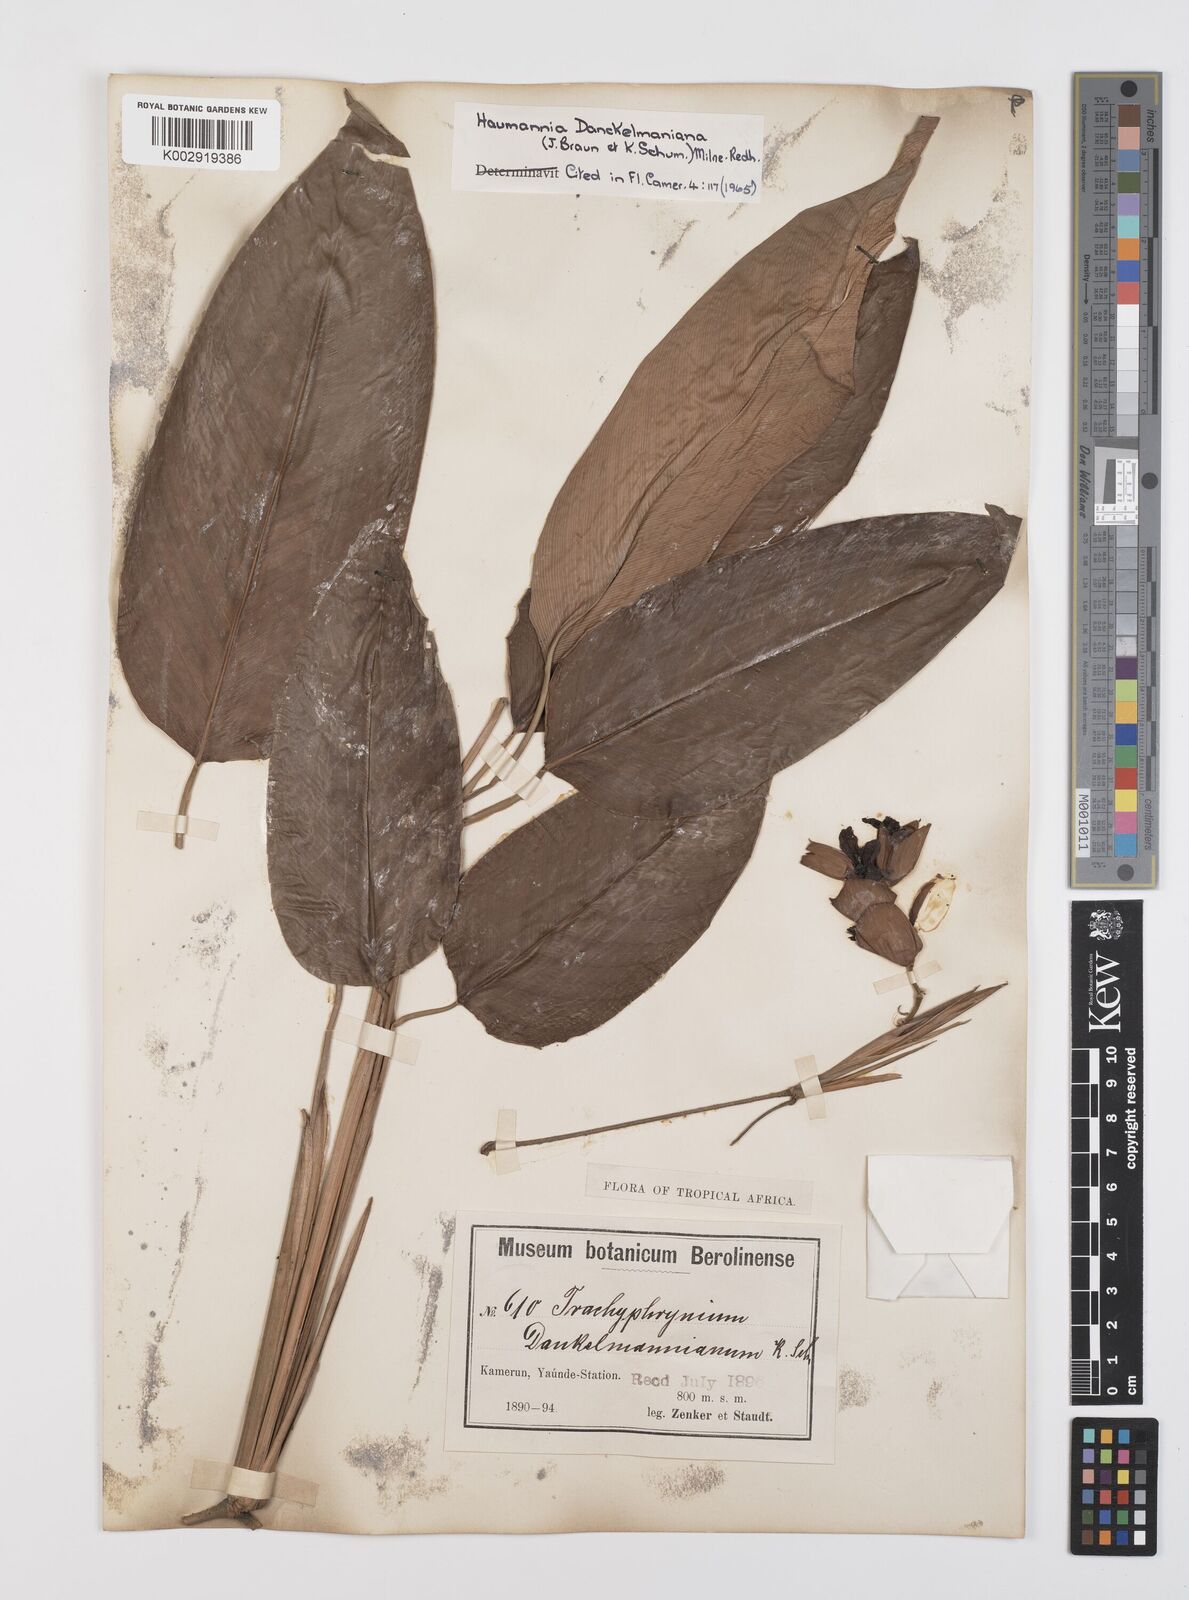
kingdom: Plantae
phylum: Tracheophyta
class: Liliopsida
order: Zingiberales
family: Marantaceae
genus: Haumania
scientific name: Haumania danckelmaniana
